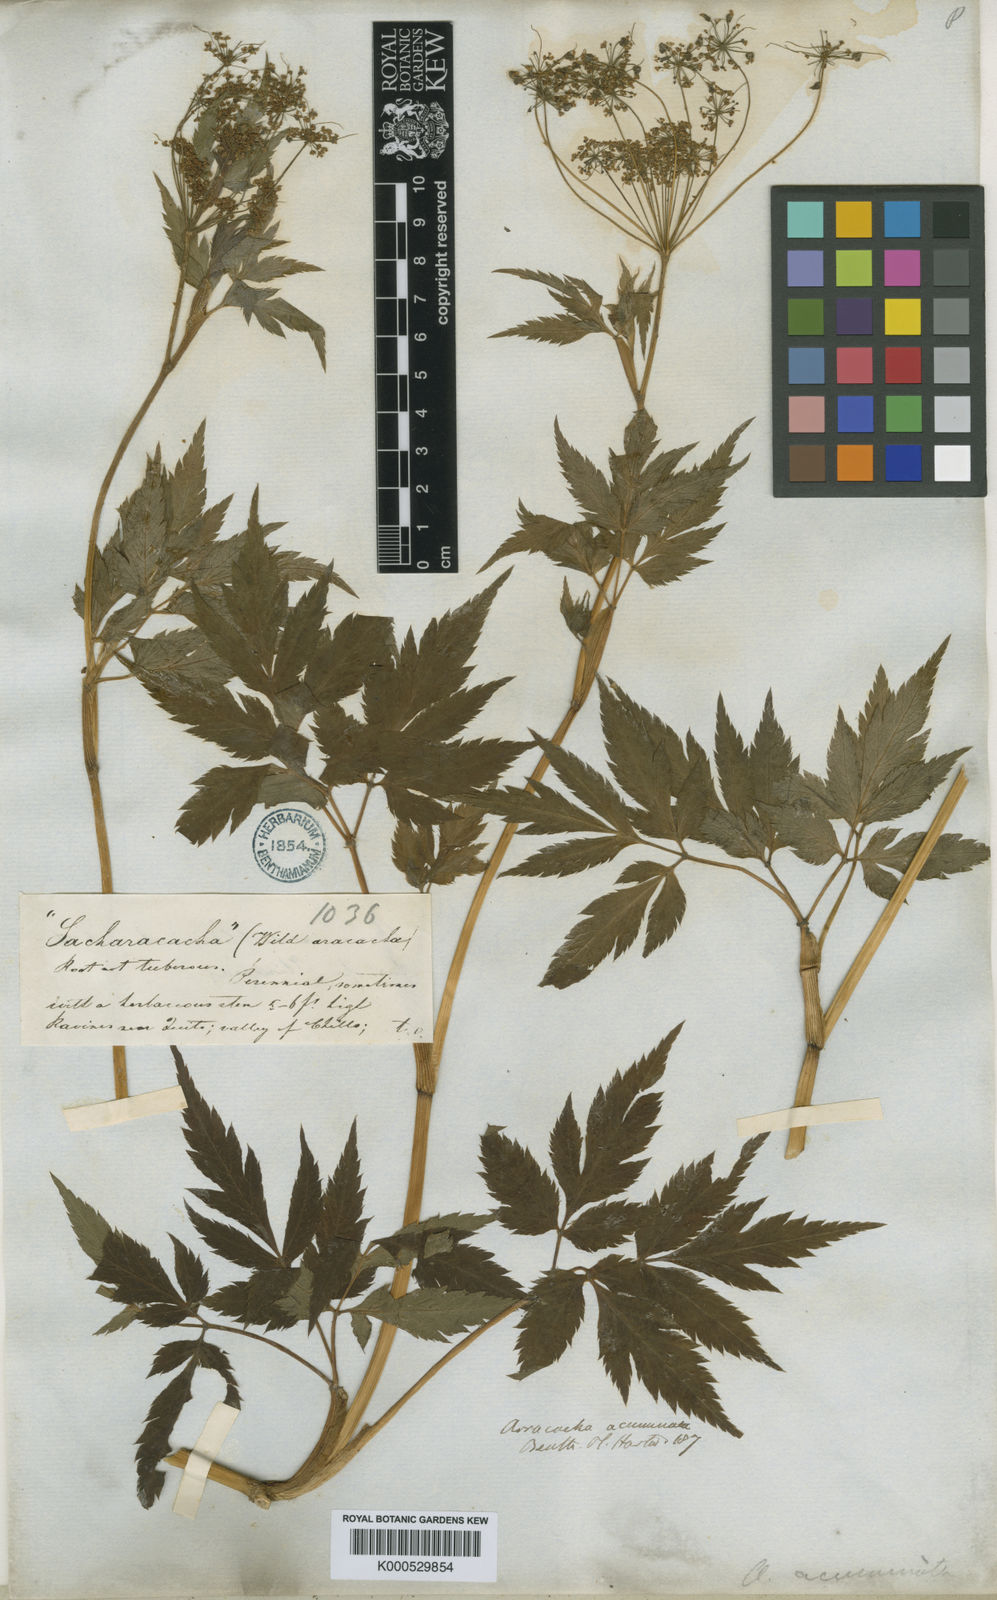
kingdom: Plantae
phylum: Tracheophyta
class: Magnoliopsida
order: Apiales
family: Apiaceae
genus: Neonelsonia
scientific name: Neonelsonia
